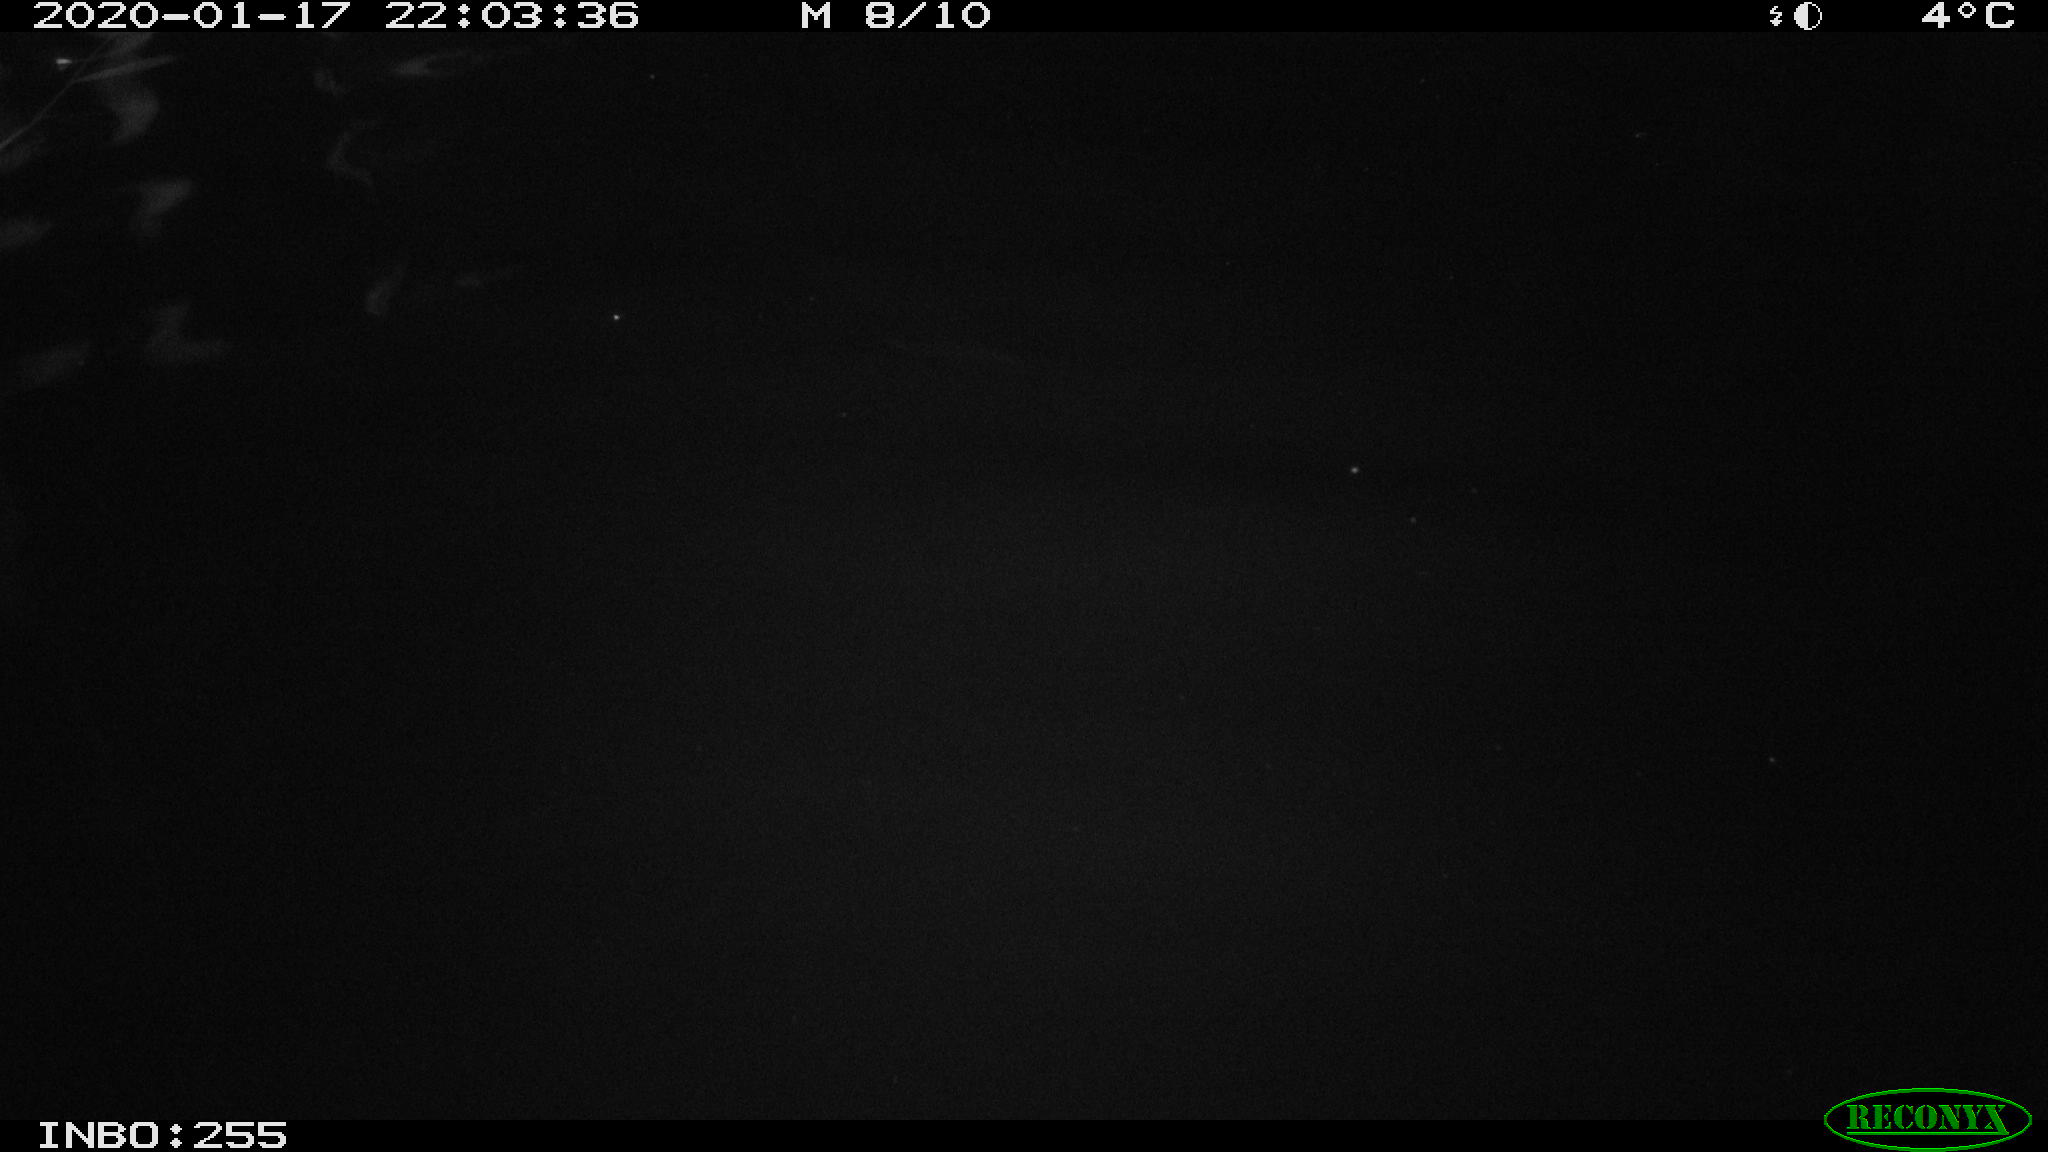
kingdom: Animalia
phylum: Chordata
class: Aves
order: Anseriformes
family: Anatidae
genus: Anas
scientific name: Anas platyrhynchos
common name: Mallard
